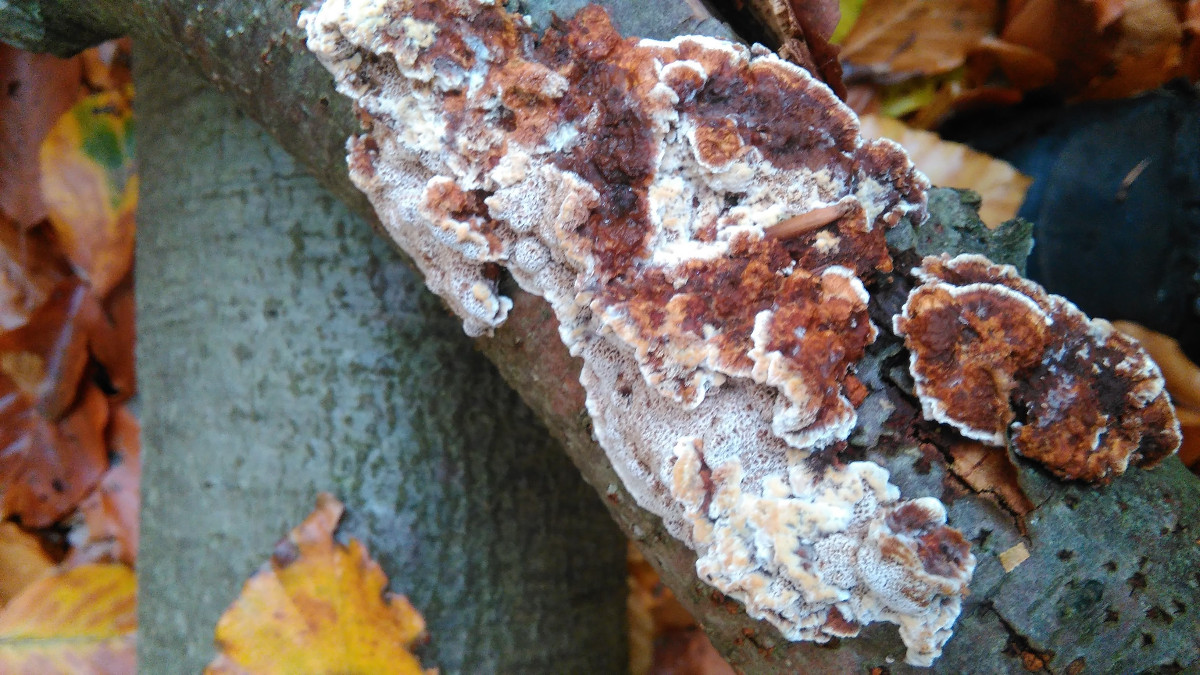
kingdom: Fungi
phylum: Basidiomycota
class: Agaricomycetes
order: Hymenochaetales
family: Hymenochaetaceae
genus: Mensularia
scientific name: Mensularia nodulosa
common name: bøge-spejlporesvamp
